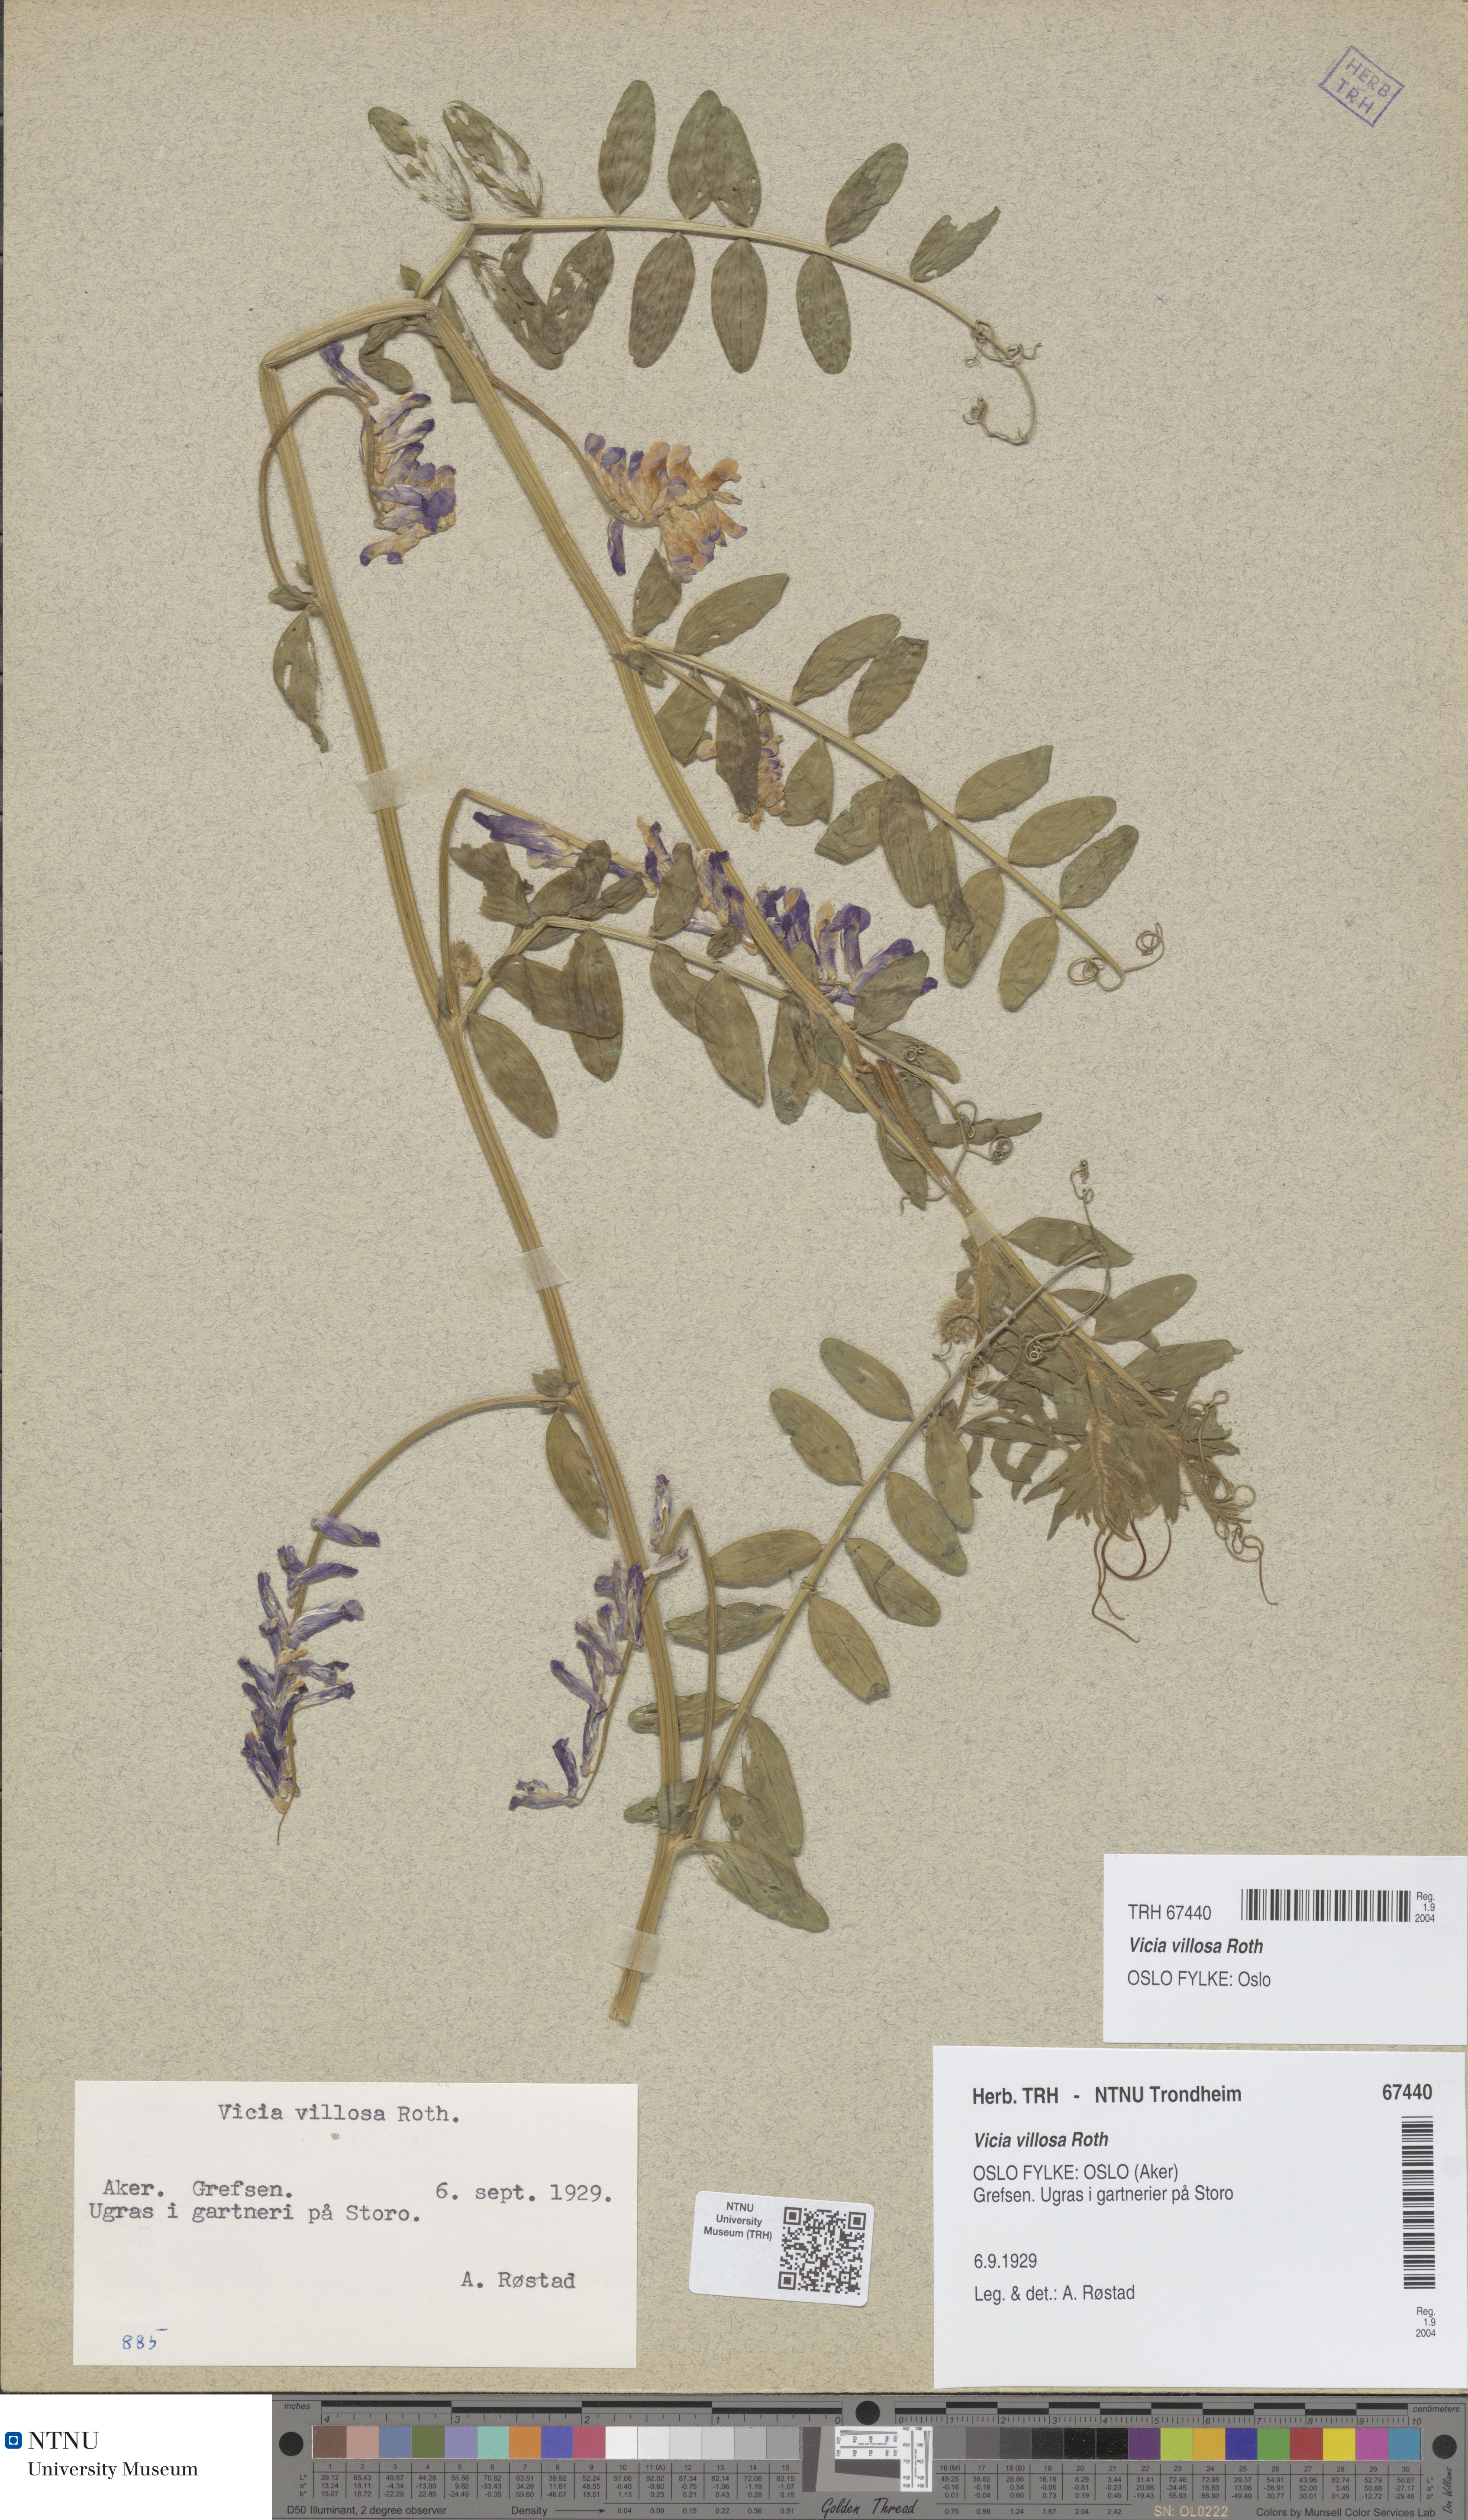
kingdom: Plantae
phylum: Tracheophyta
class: Magnoliopsida
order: Fabales
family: Fabaceae
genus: Vicia
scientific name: Vicia villosa
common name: Fodder vetch
